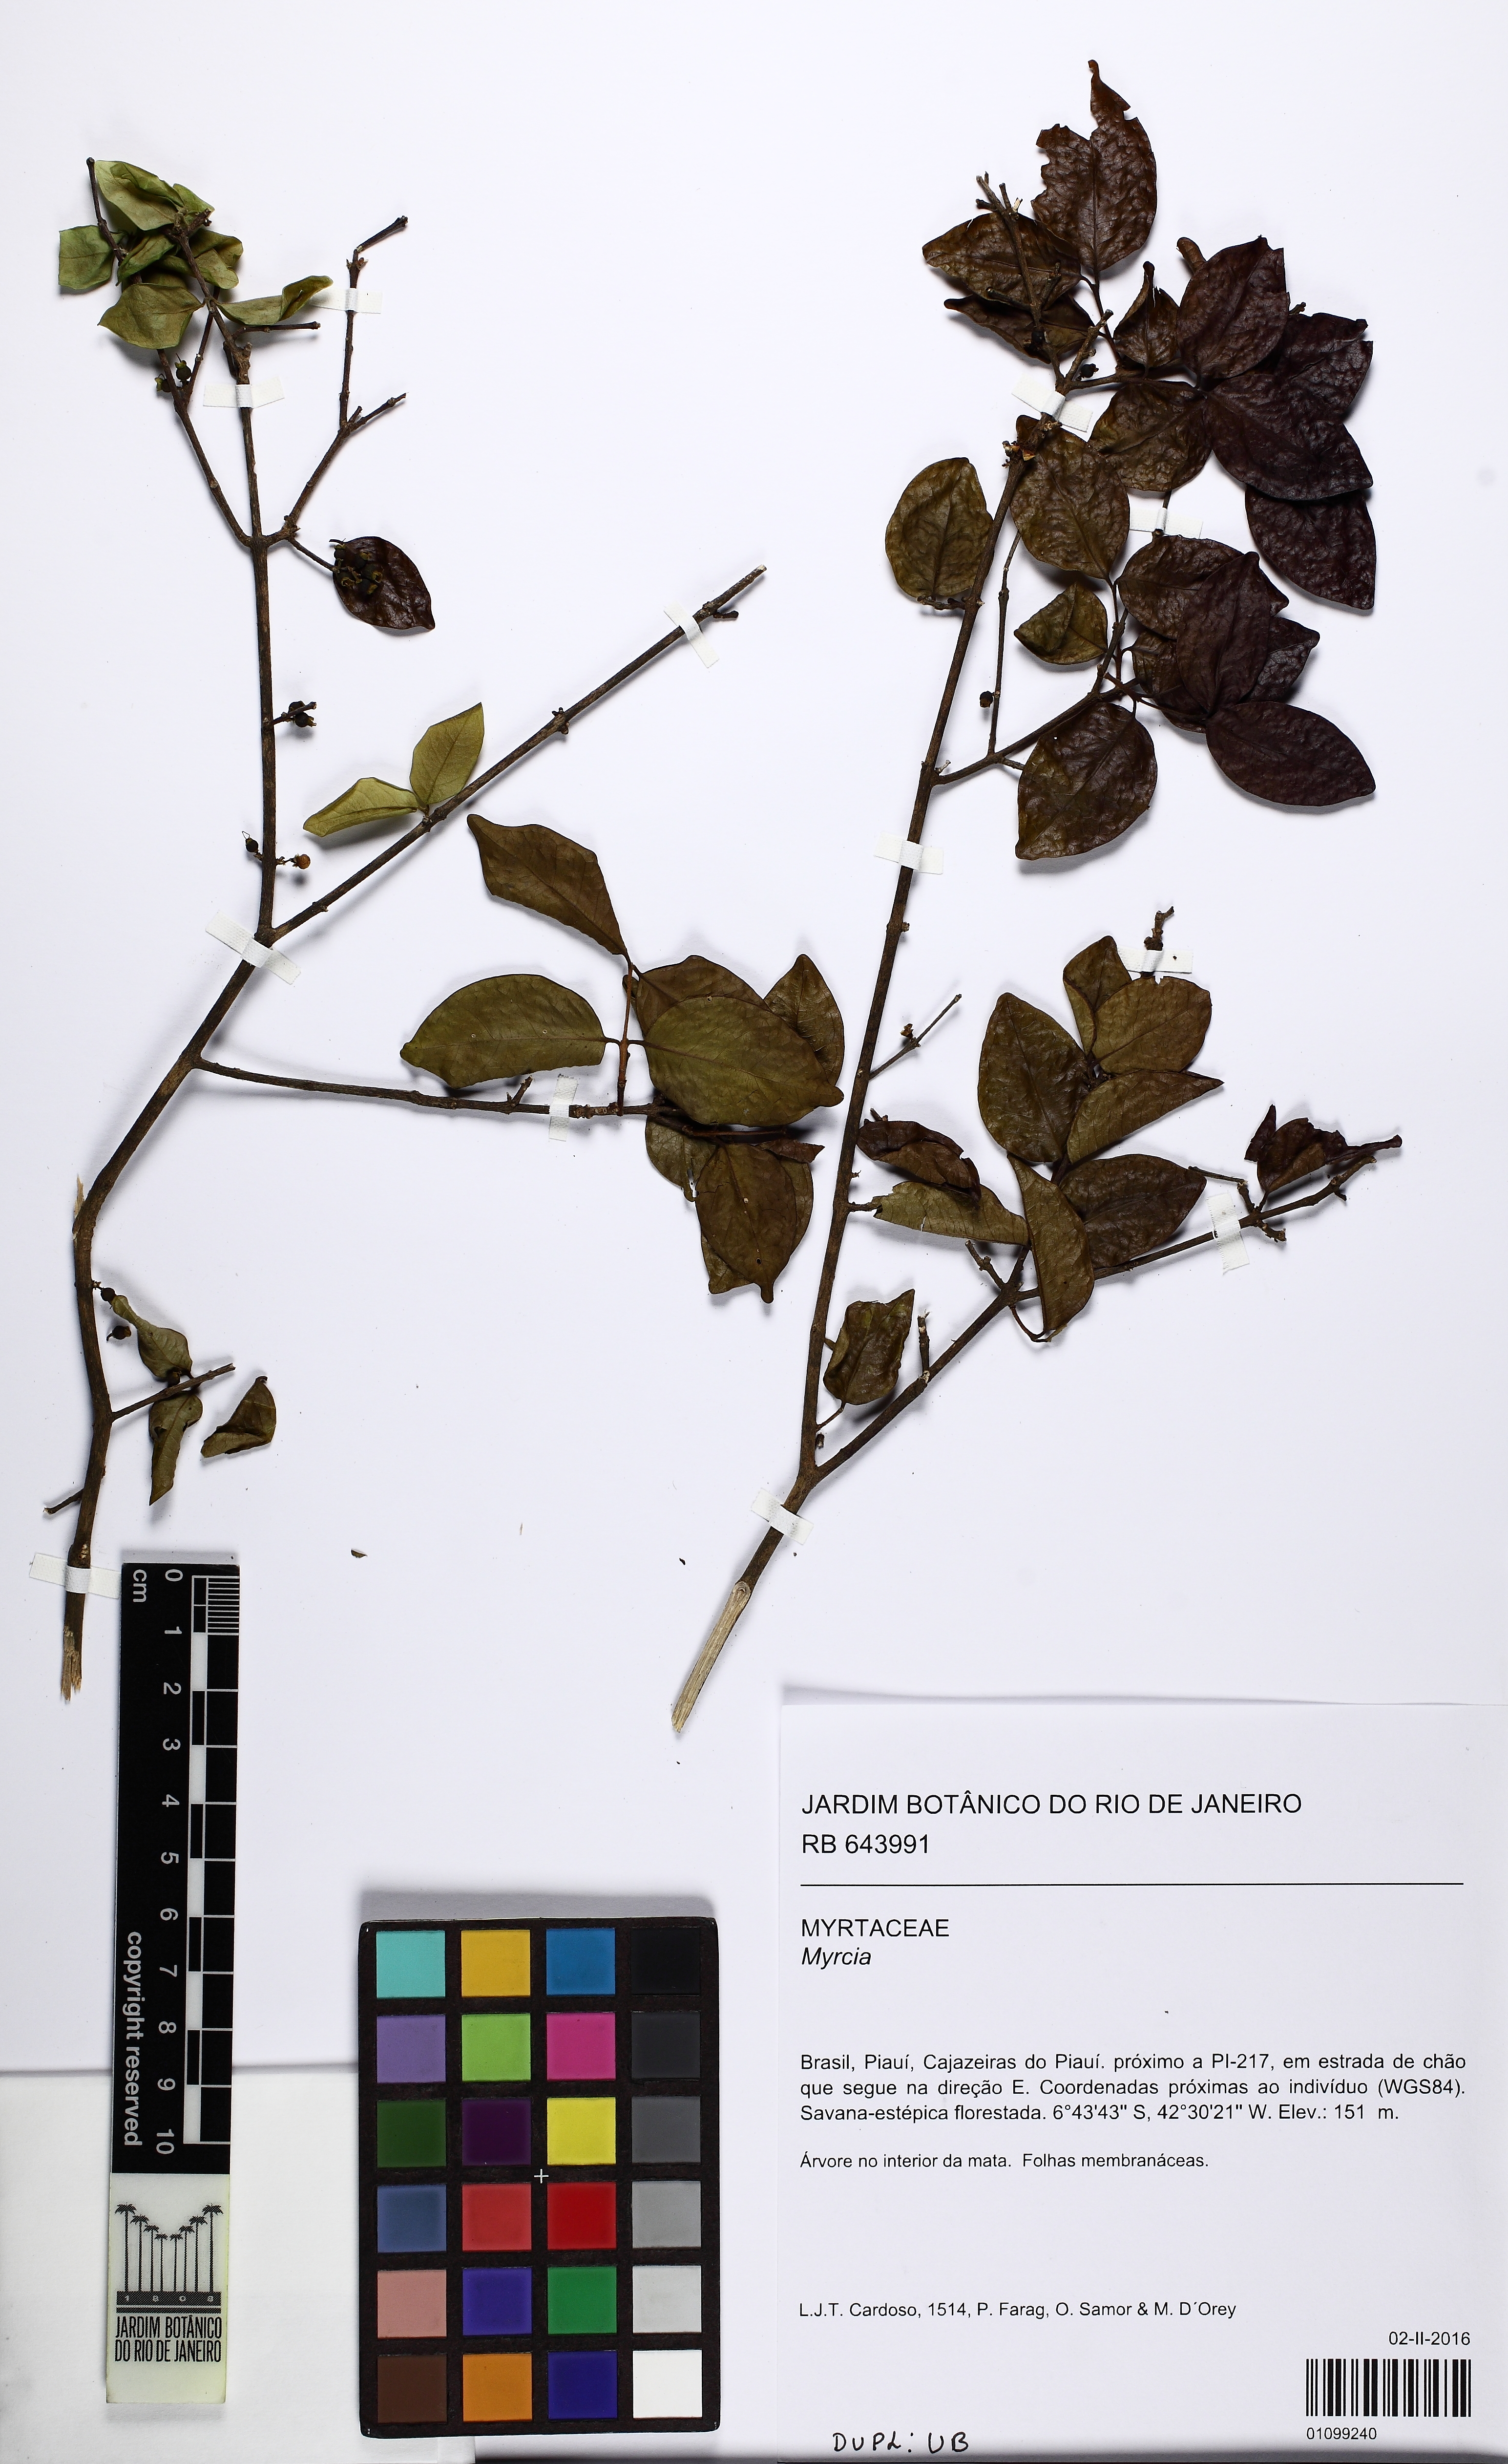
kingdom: Plantae
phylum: Tracheophyta
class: Magnoliopsida
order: Myrtales
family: Myrtaceae
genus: Eugenia
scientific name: Eugenia
